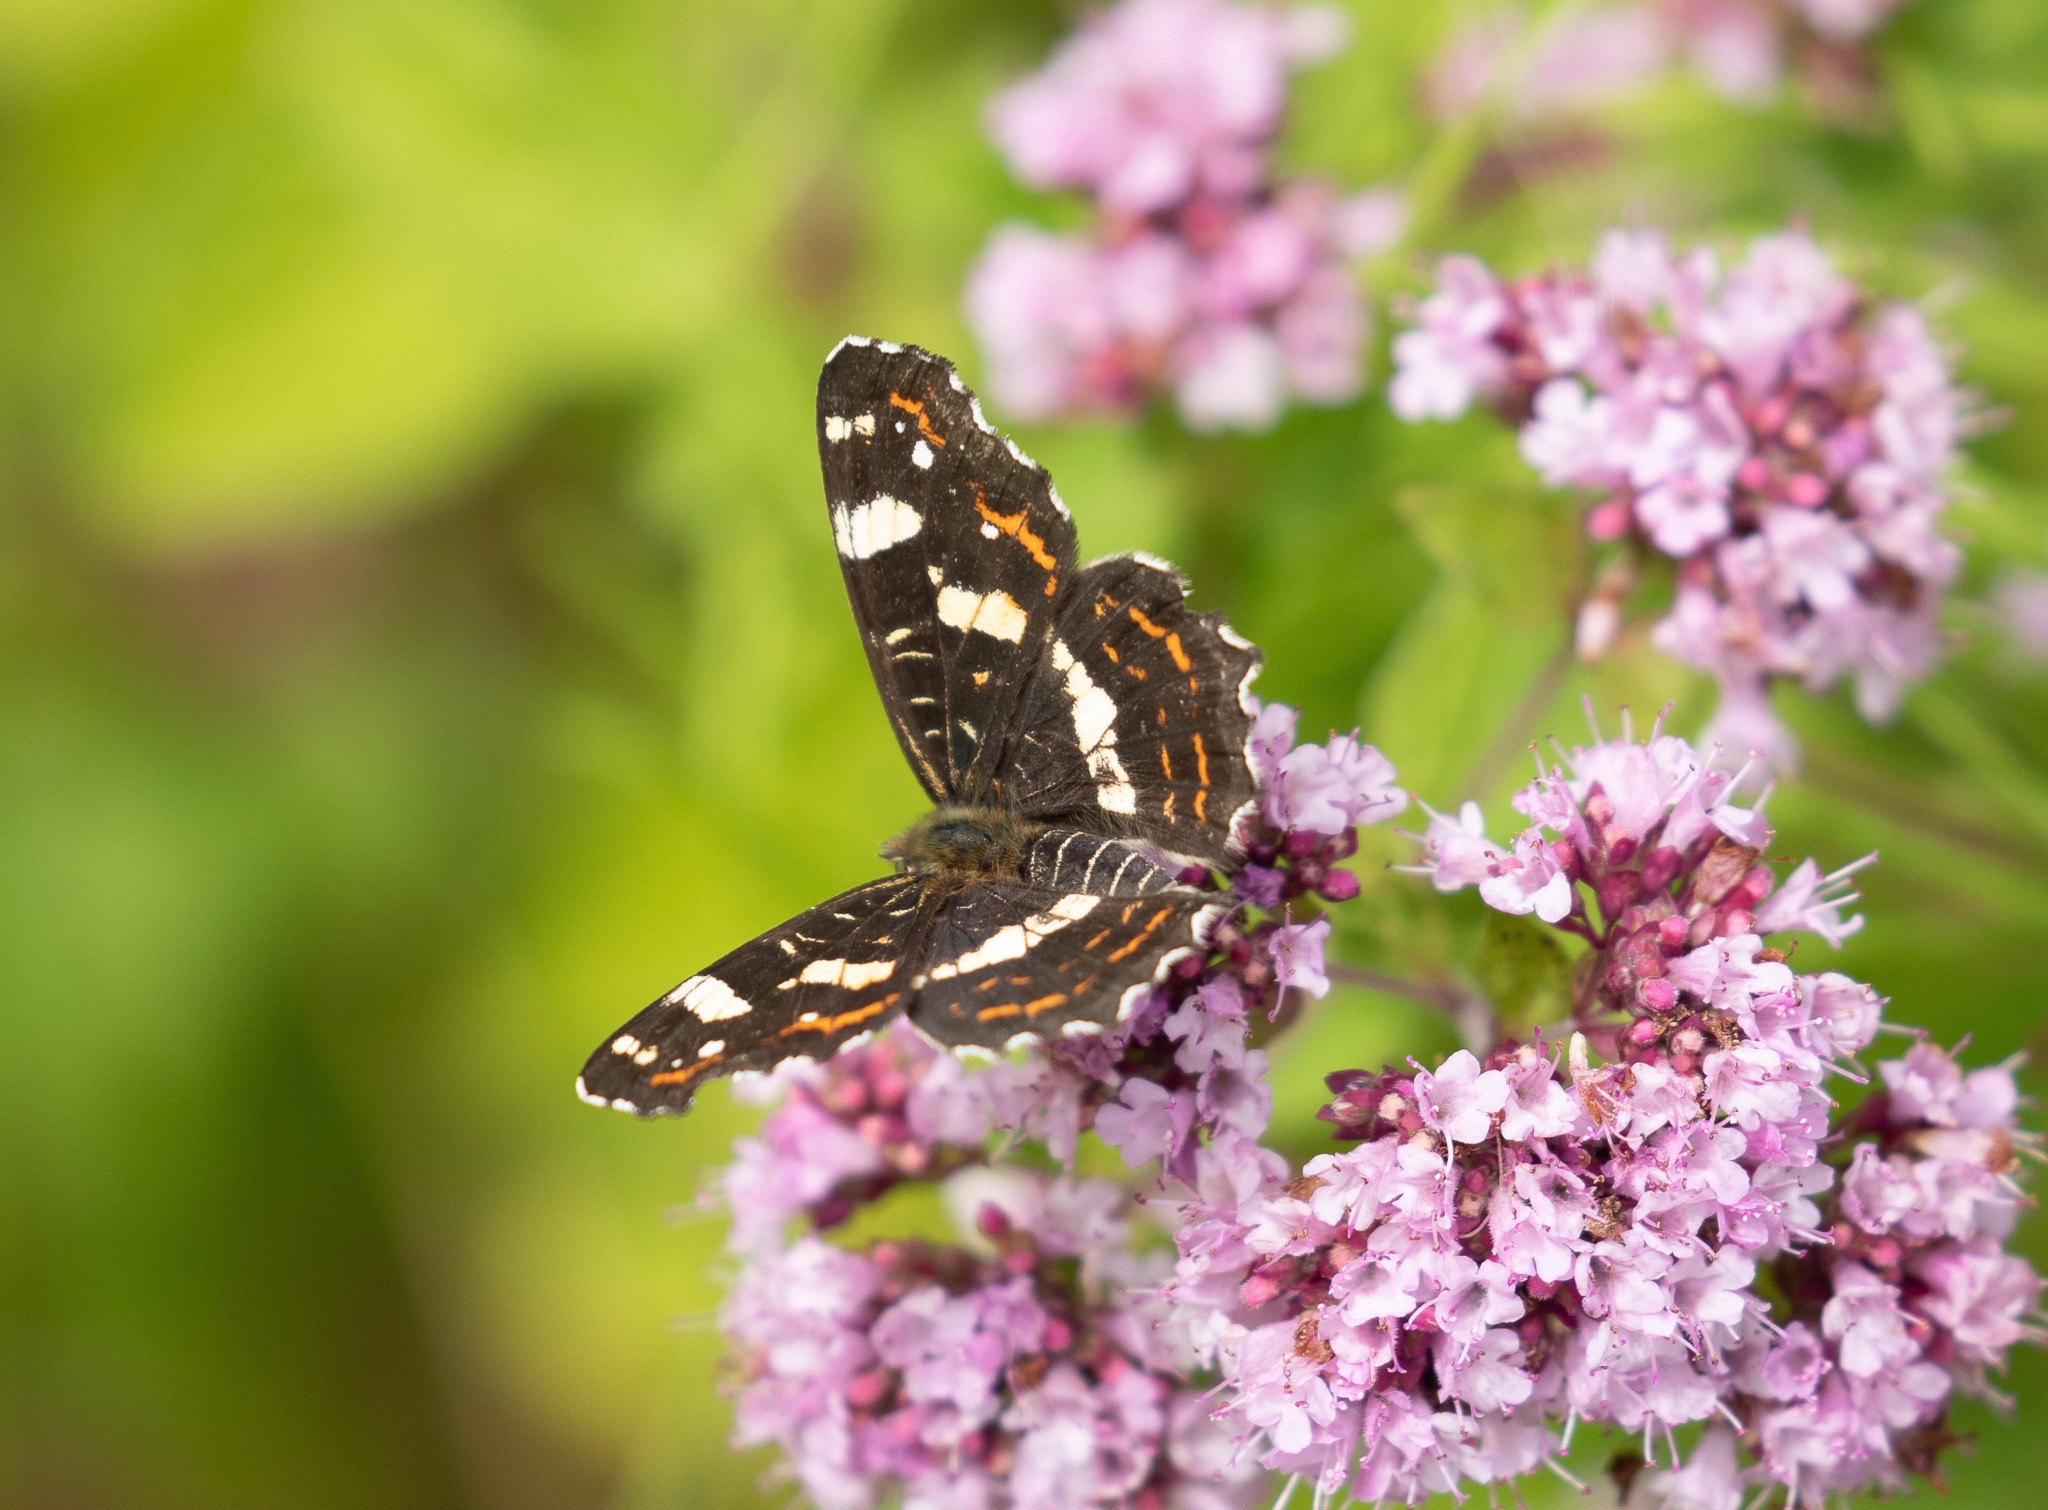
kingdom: Animalia
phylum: Arthropoda
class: Insecta
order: Lepidoptera
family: Nymphalidae
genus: Araschnia
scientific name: Araschnia levana
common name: Nældesommerfugl
